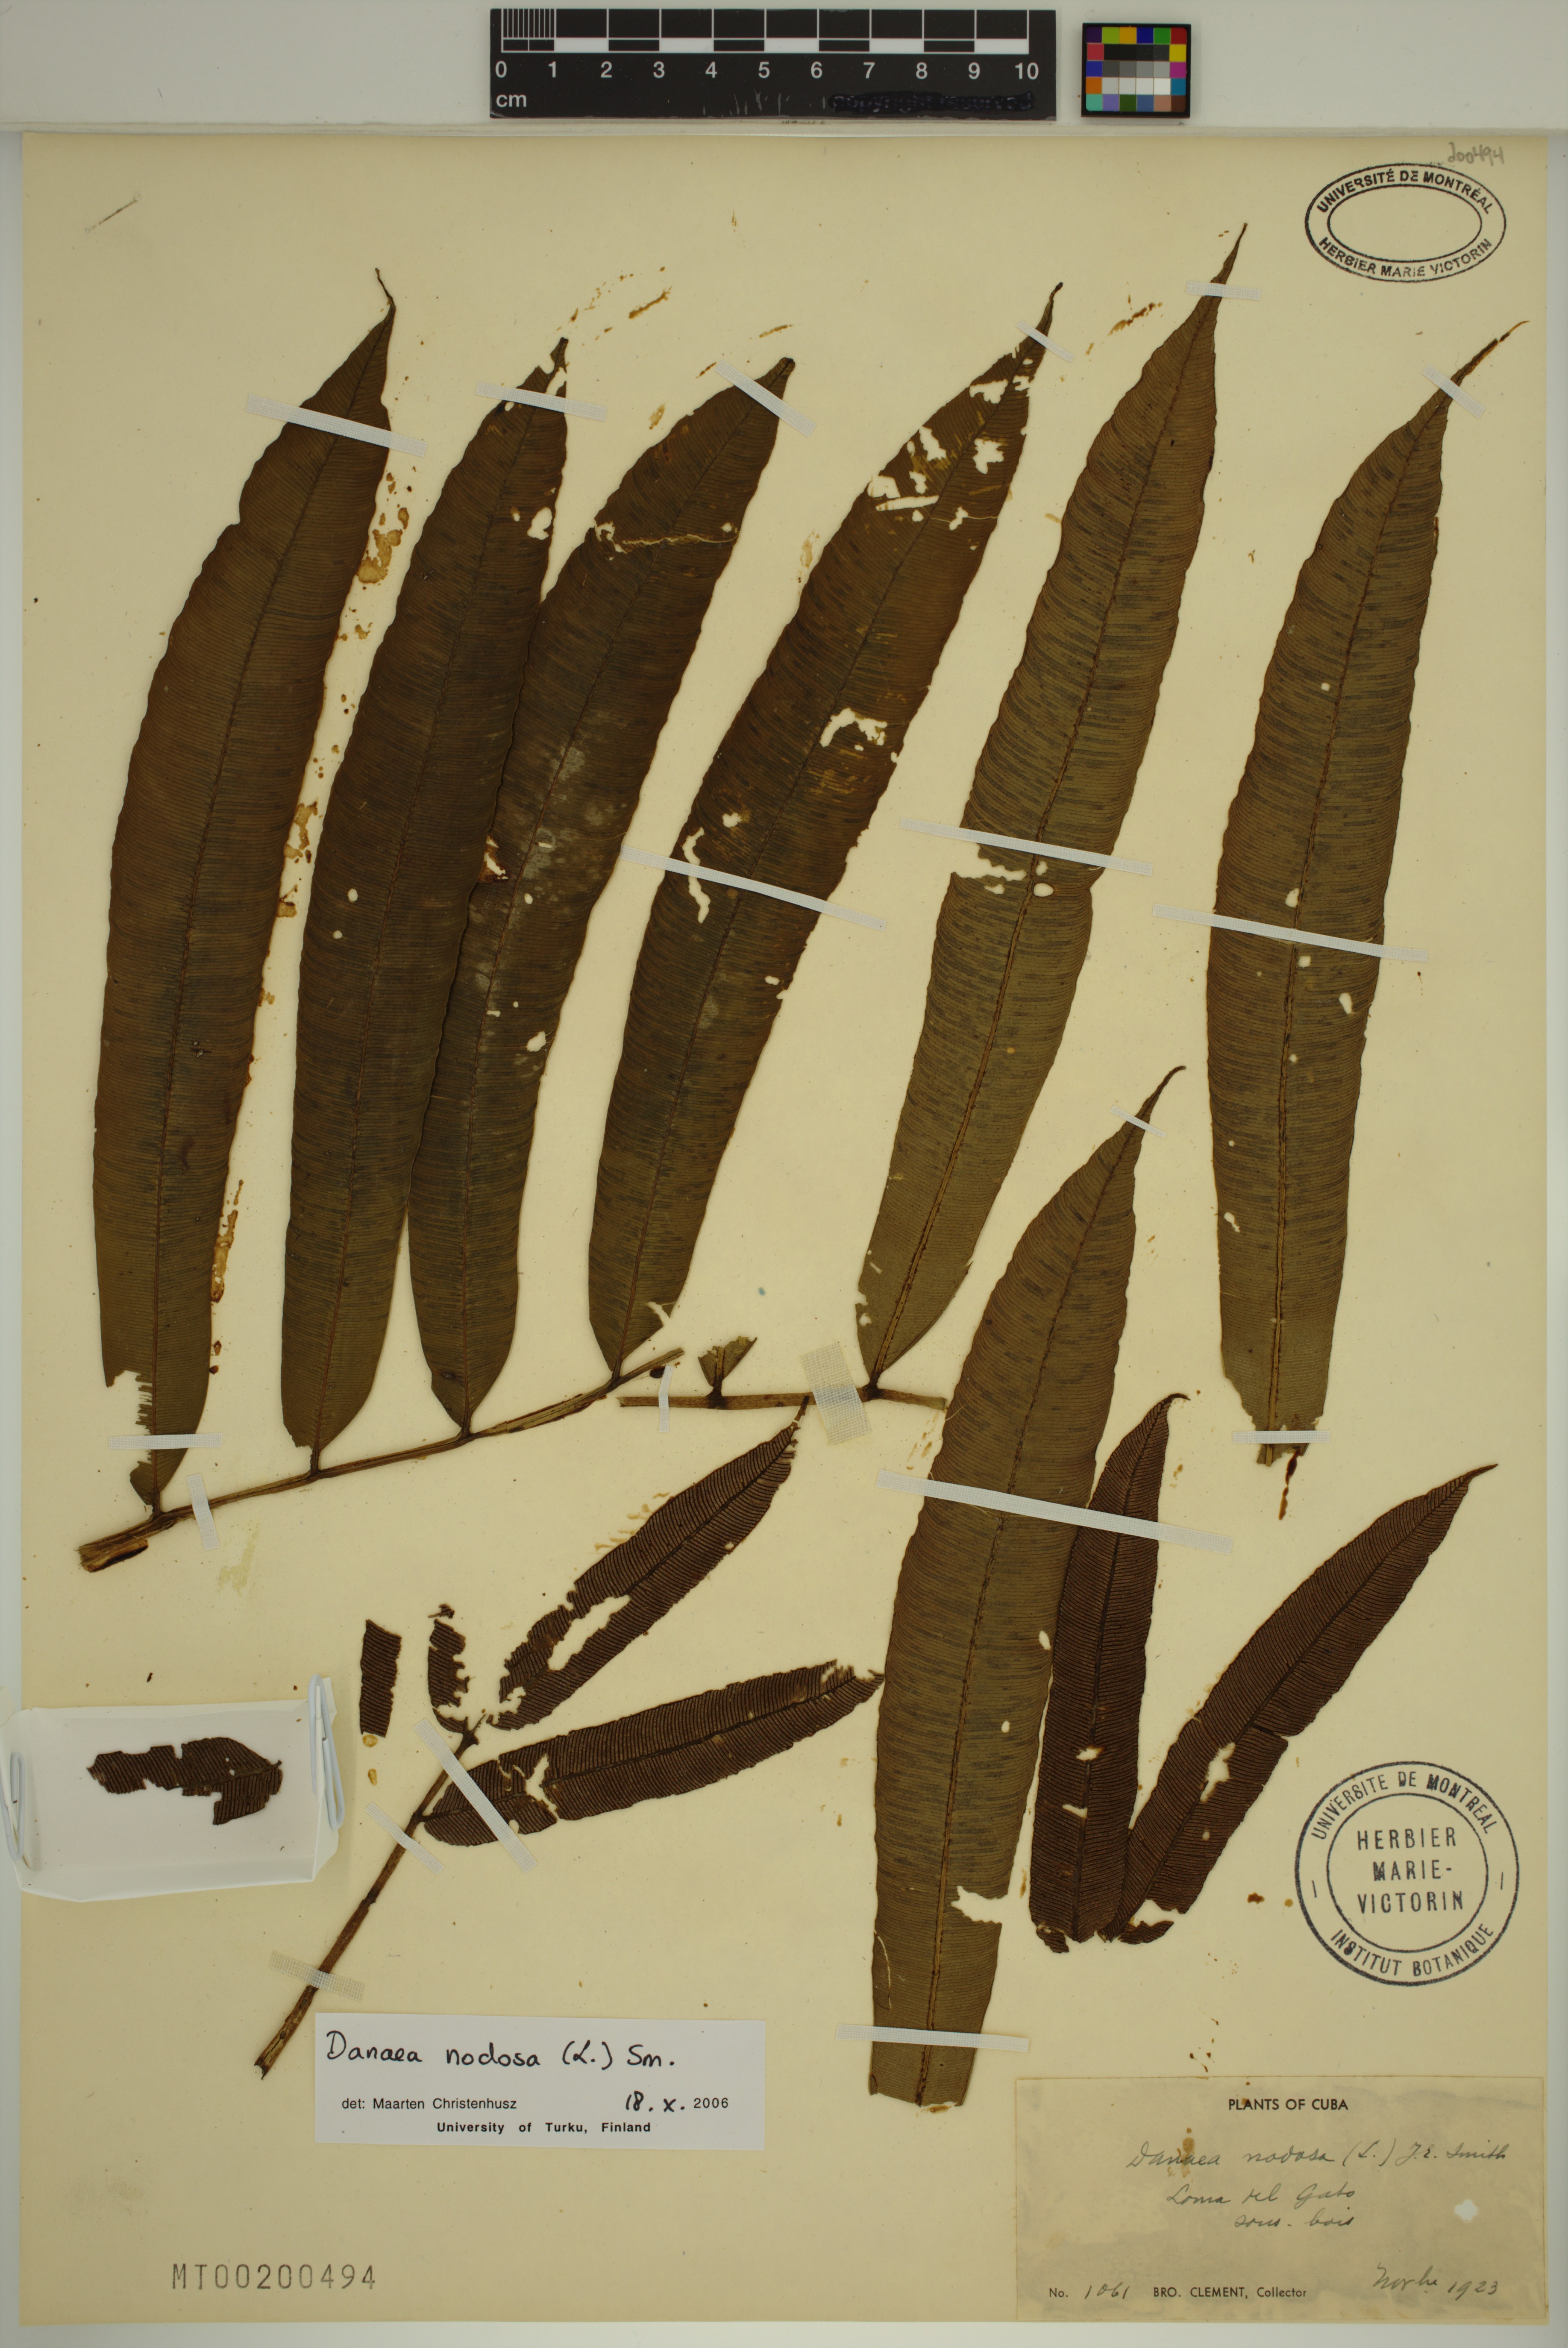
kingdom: Plantae
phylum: Tracheophyta
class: Polypodiopsida
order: Marattiales
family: Marattiaceae
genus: Danaea
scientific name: Danaea nodosa
